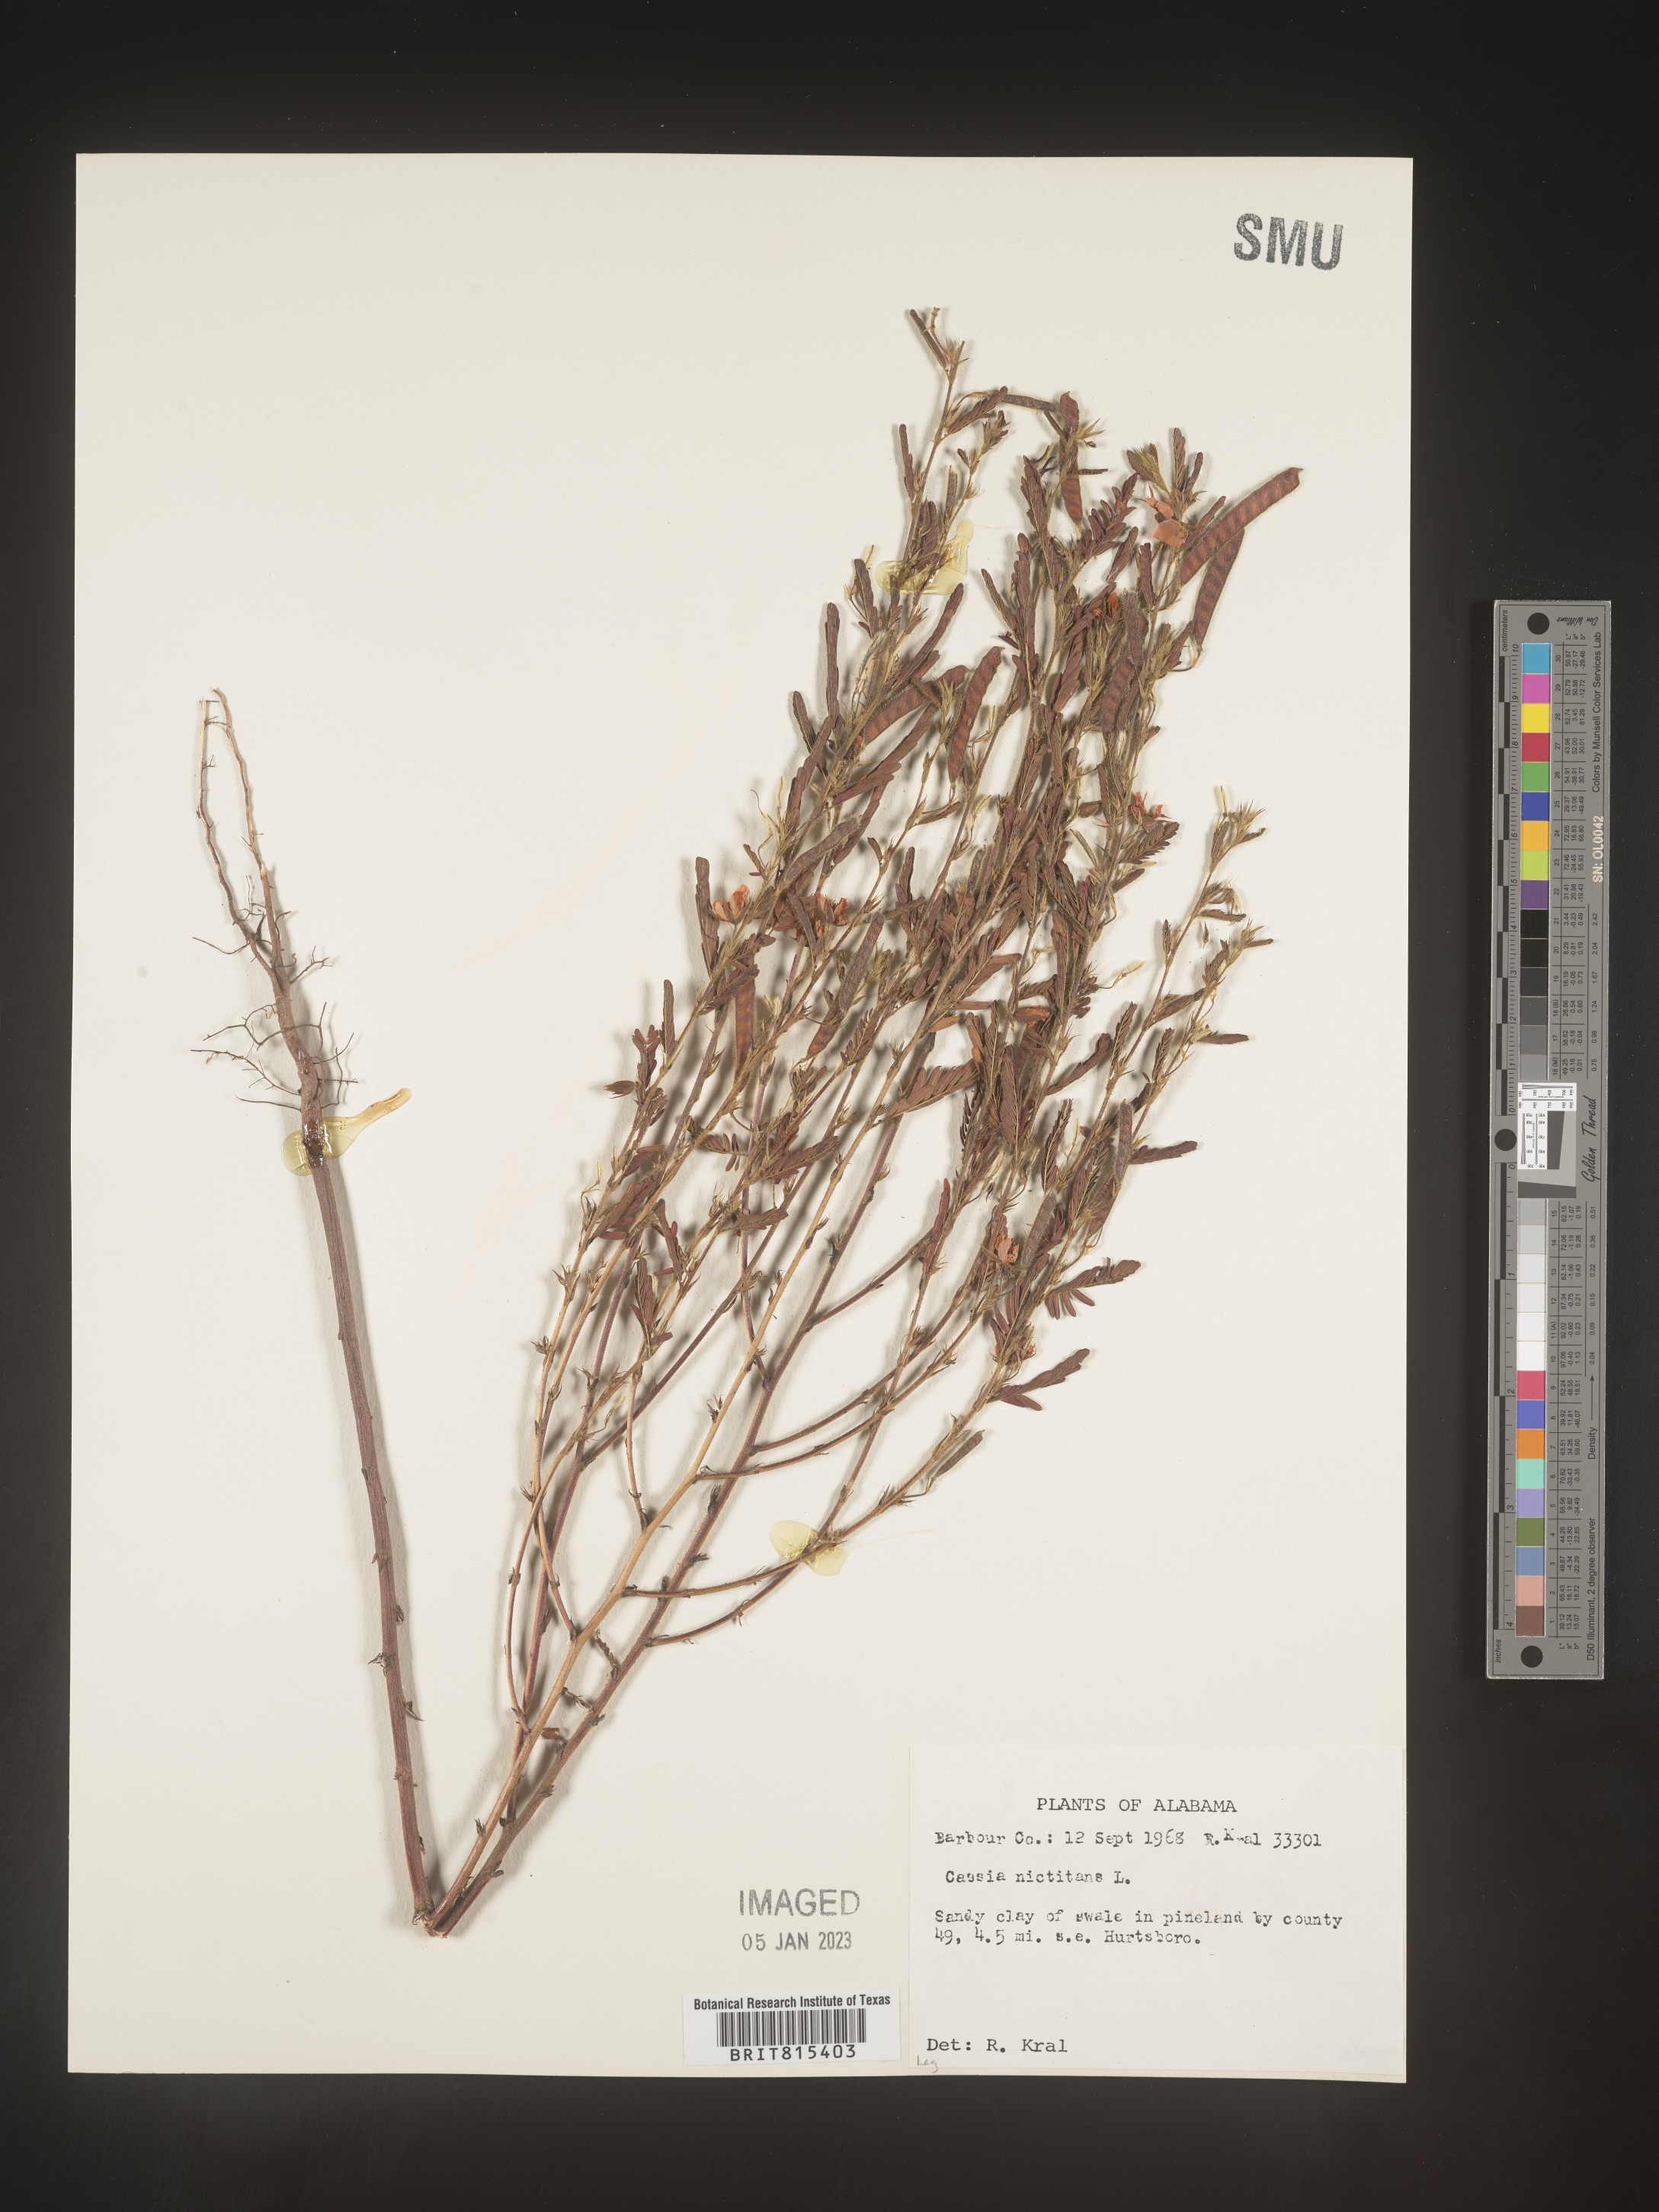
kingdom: Plantae
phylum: Tracheophyta
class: Magnoliopsida
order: Fabales
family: Fabaceae
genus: Chamaecrista
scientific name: Chamaecrista nictitans
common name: Sensitive cassia
